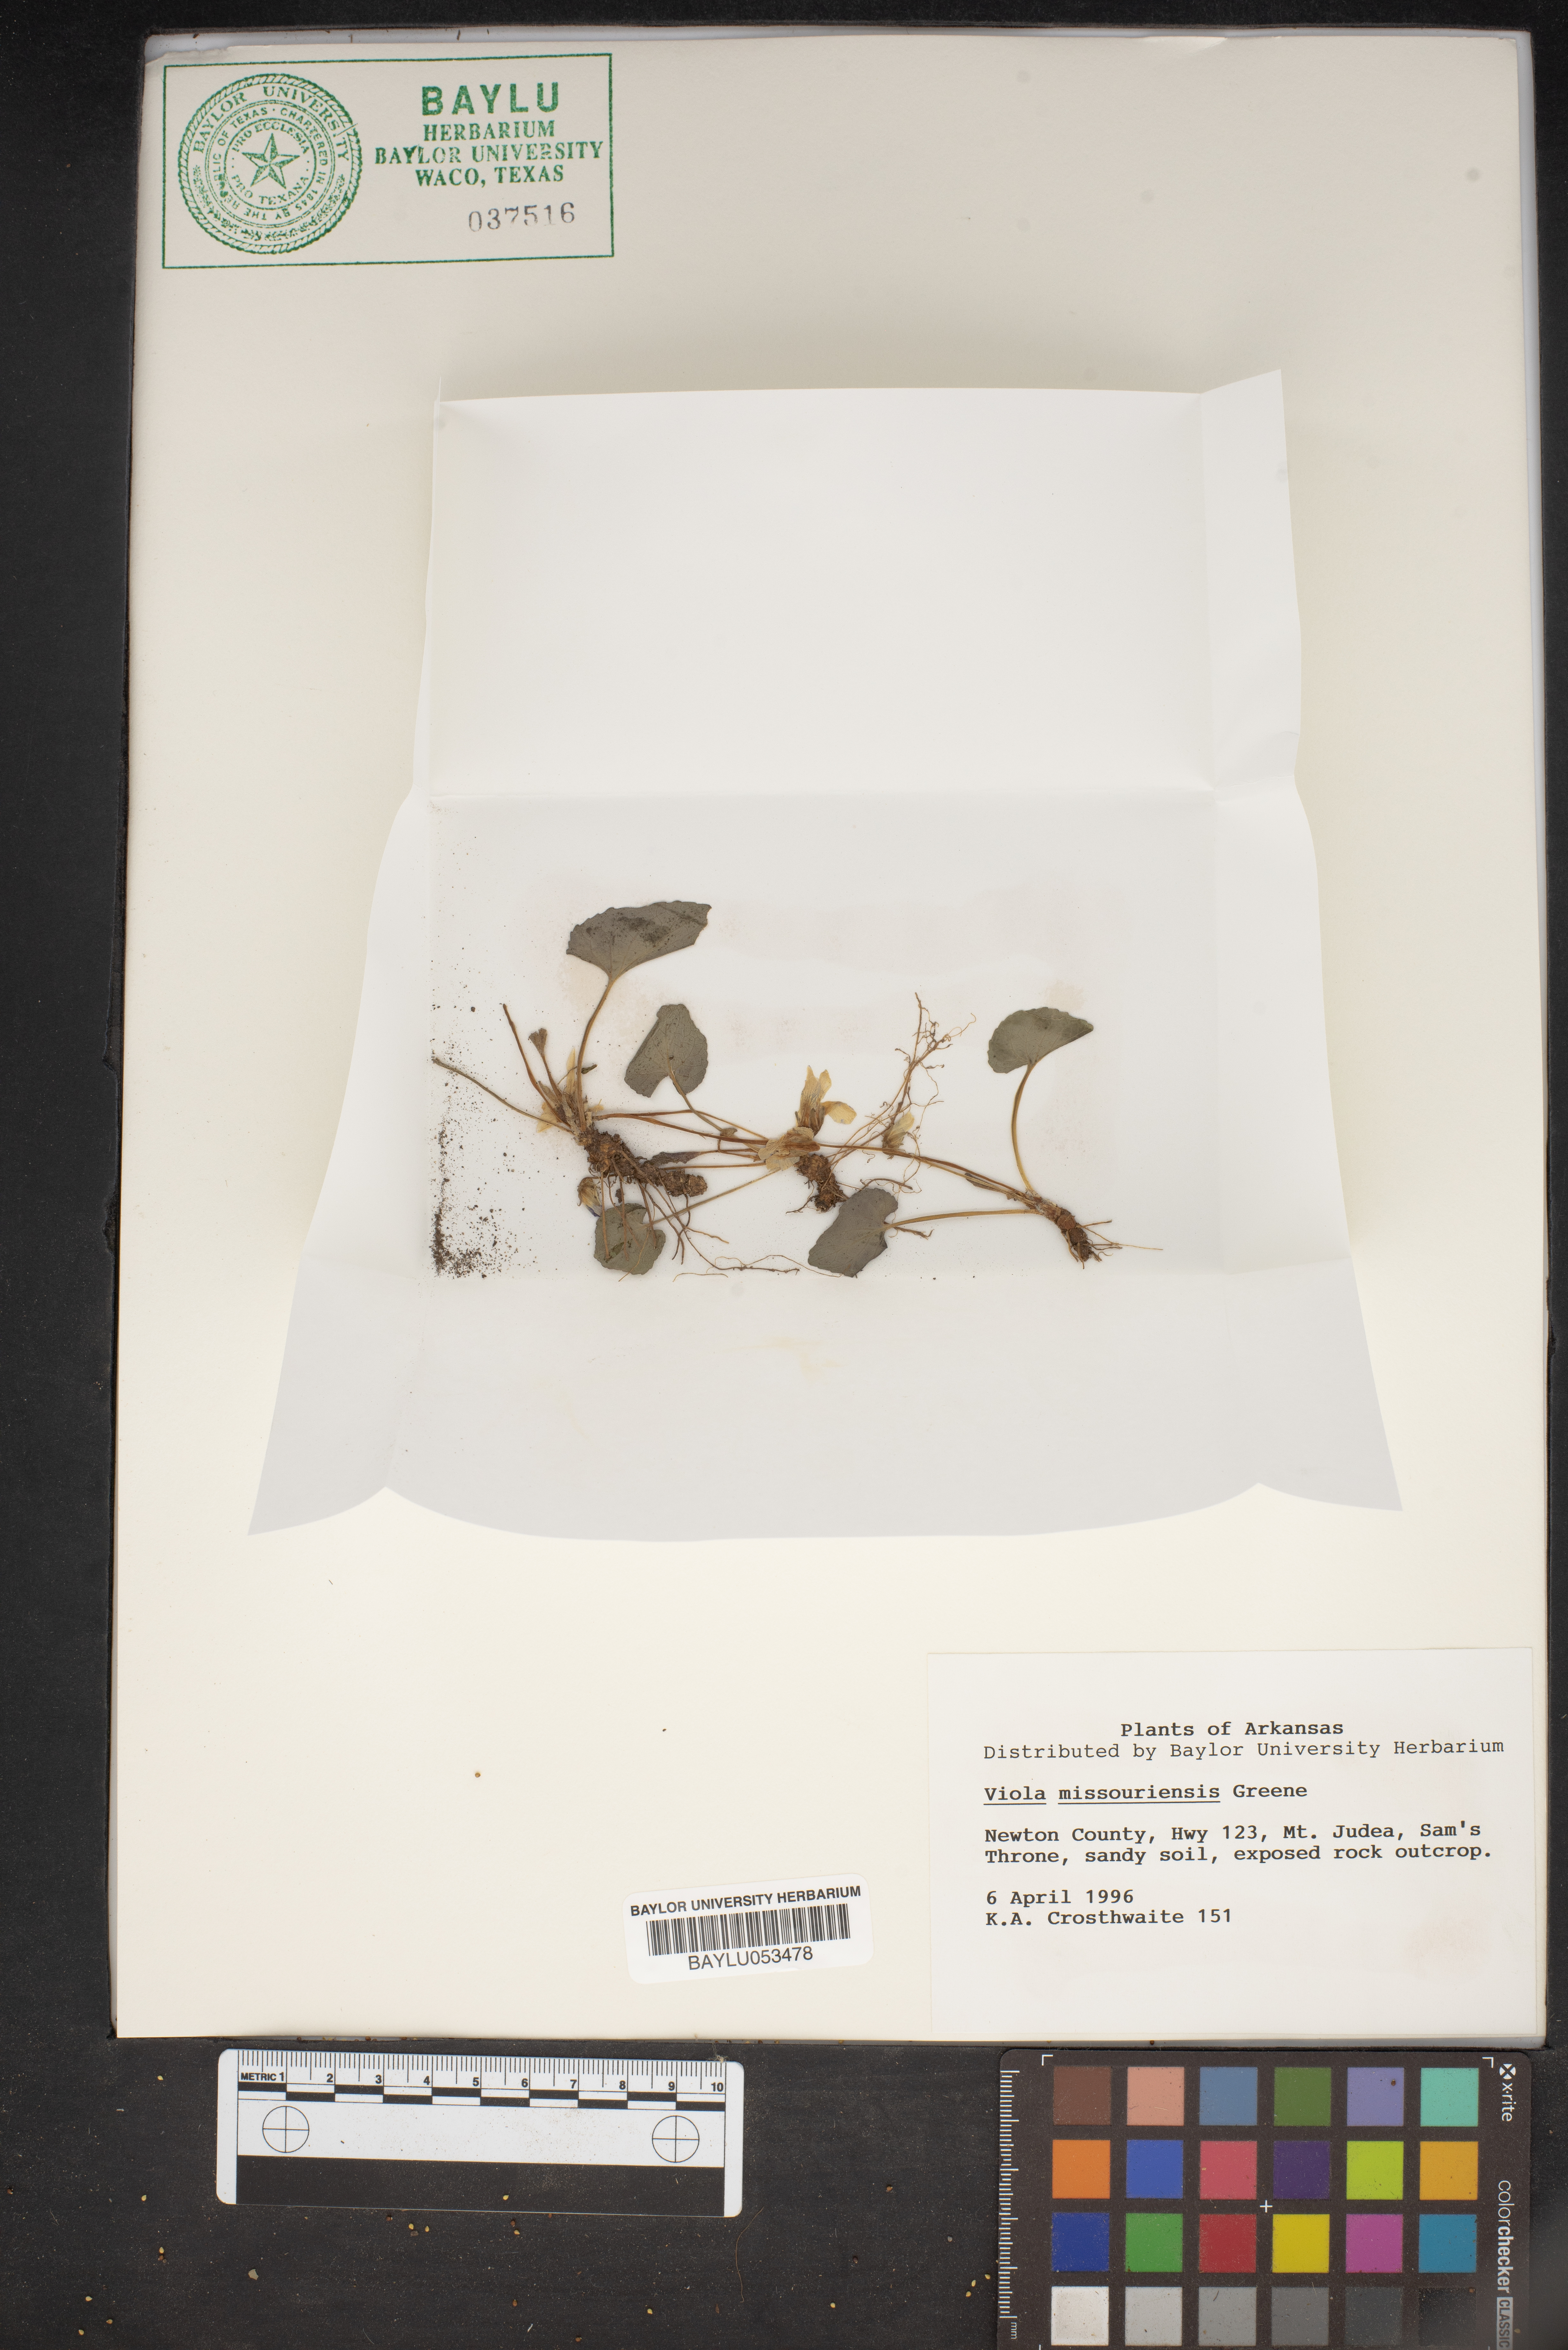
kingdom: Plantae
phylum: Tracheophyta
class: Magnoliopsida
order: Malpighiales
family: Violaceae
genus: Viola
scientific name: Viola missouriensis
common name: Missouri violet
